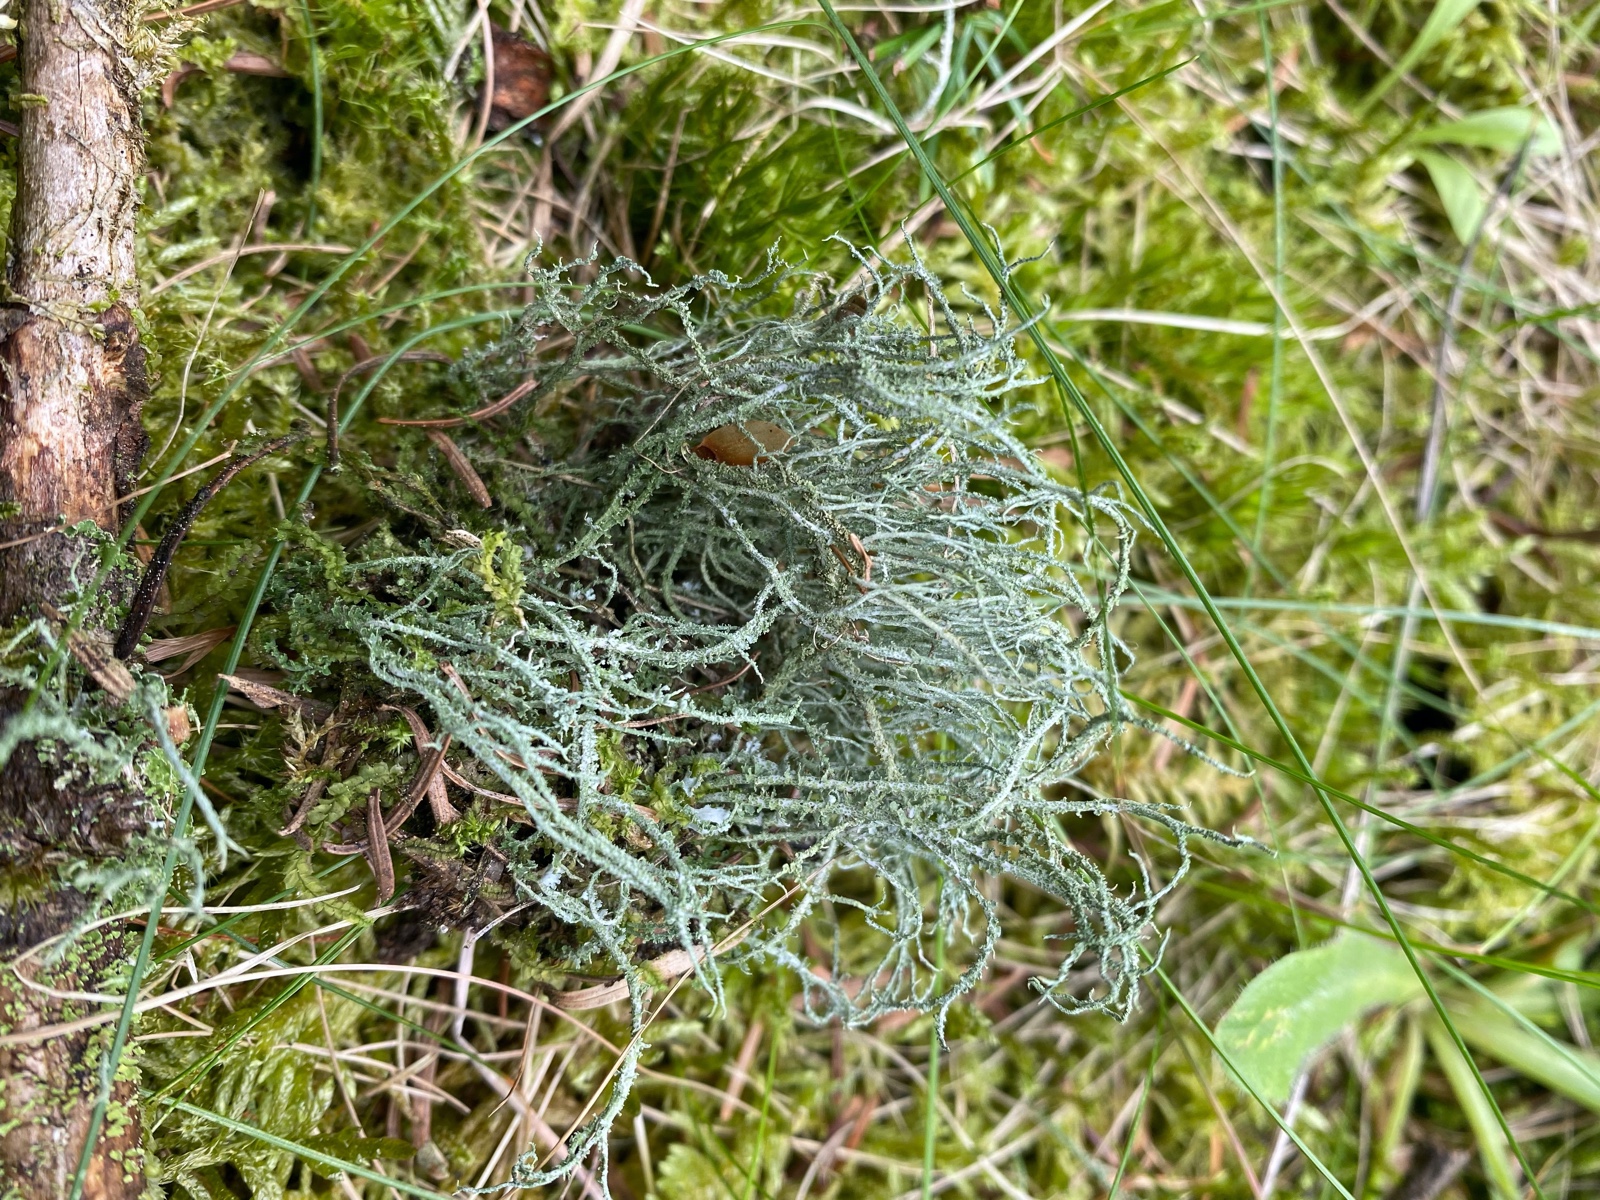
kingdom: Fungi
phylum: Ascomycota
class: Lecanoromycetes
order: Lecanorales
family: Cladoniaceae
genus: Cladonia
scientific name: Cladonia scabriuscula
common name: ru bægerlav
